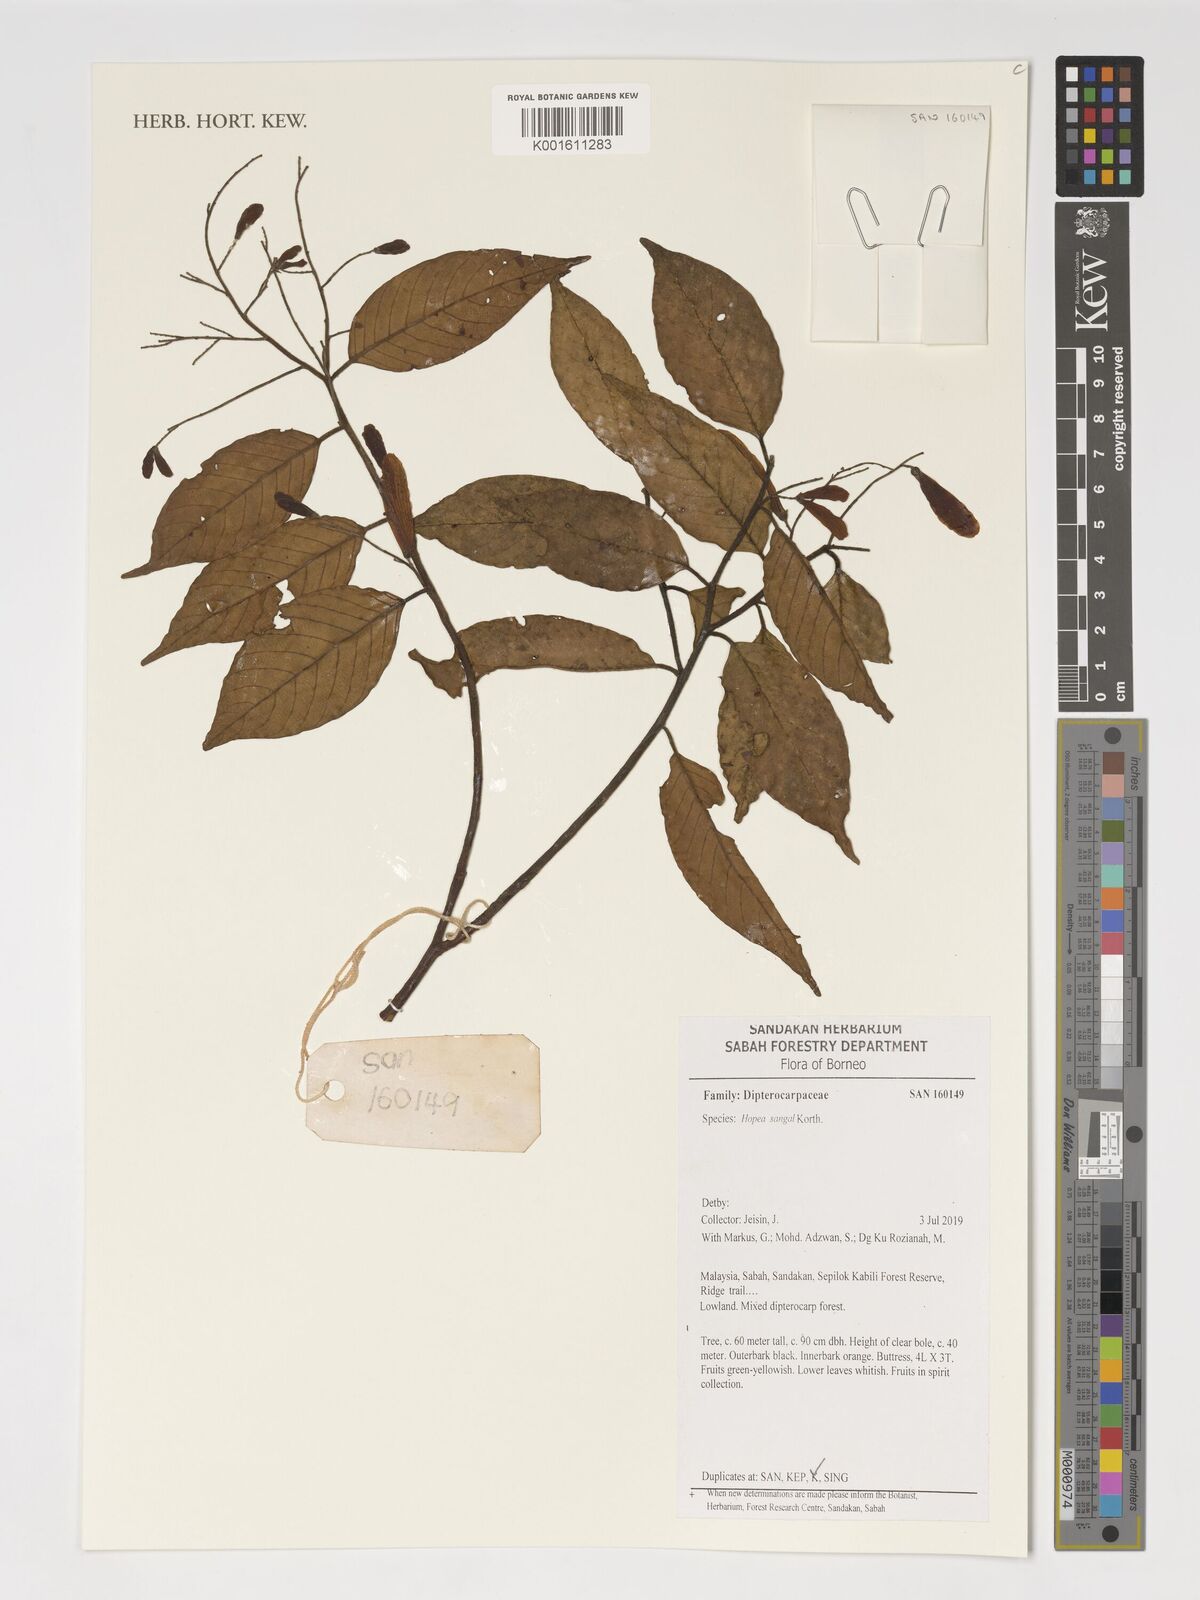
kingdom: Plantae
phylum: Tracheophyta
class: Magnoliopsida
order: Malvales
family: Dipterocarpaceae
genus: Hopea
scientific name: Hopea sangal
